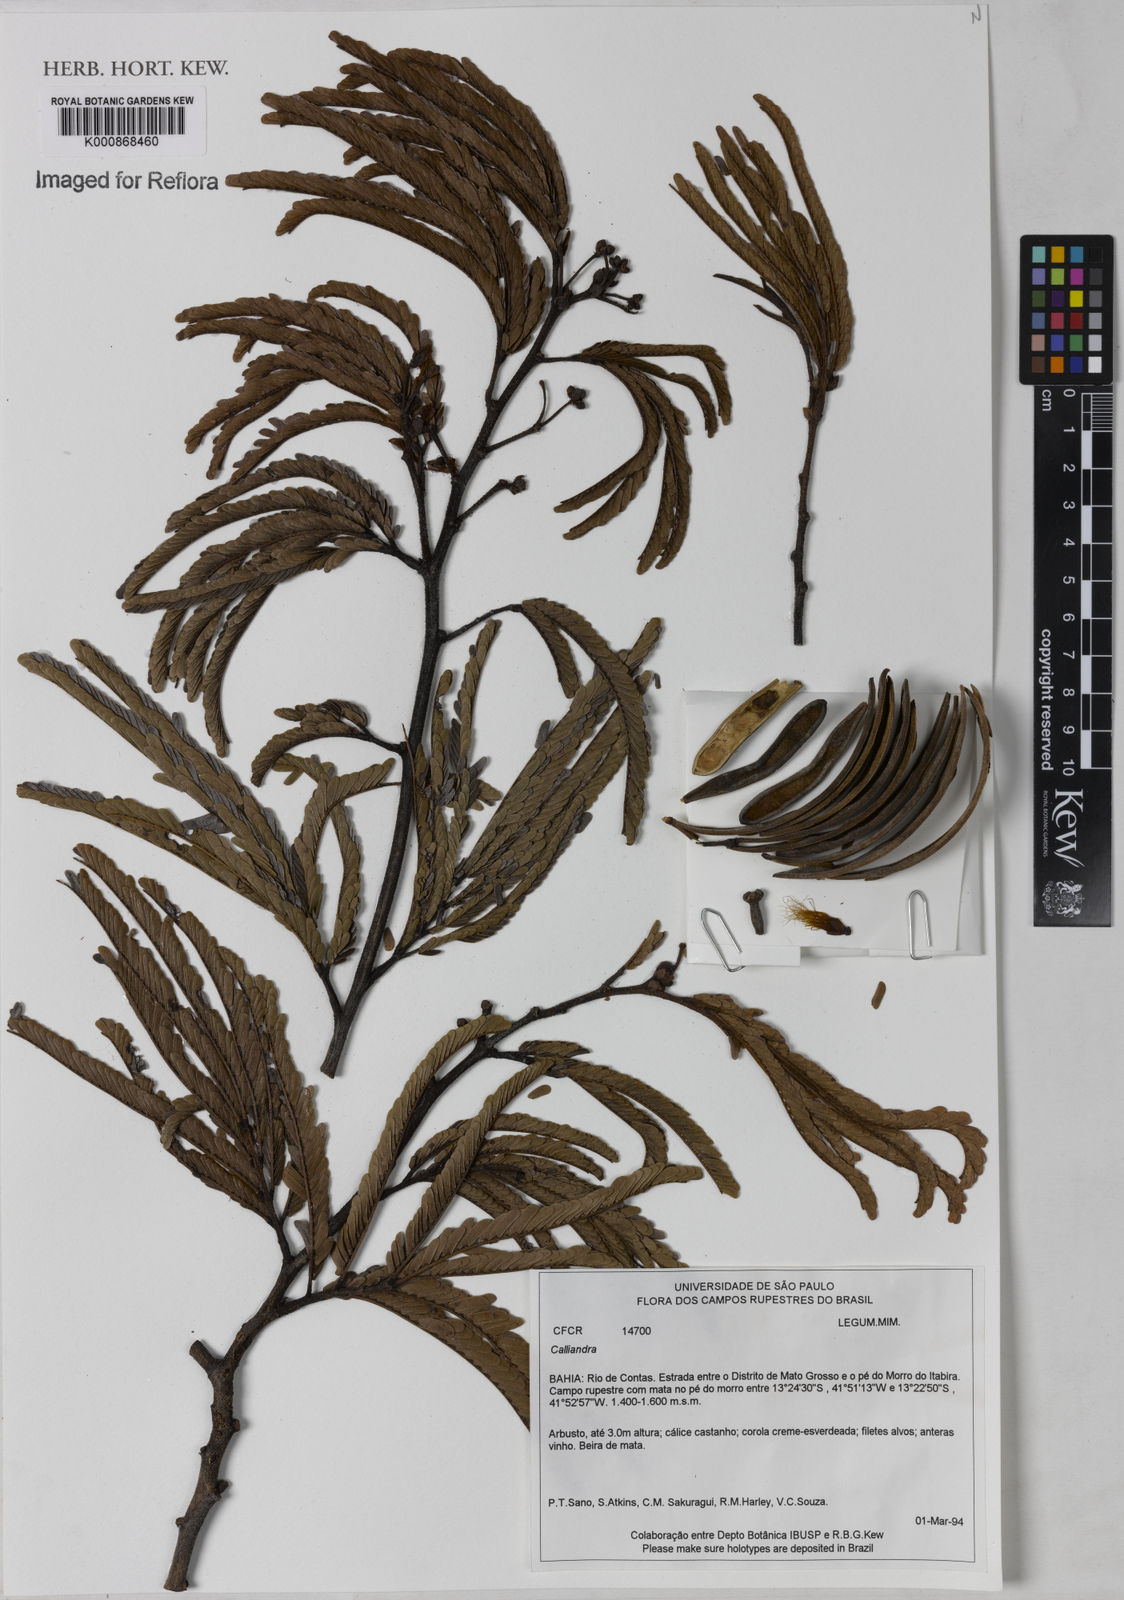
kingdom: Plantae
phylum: Tracheophyta
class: Magnoliopsida
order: Fabales
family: Fabaceae
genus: Calliandra
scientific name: Calliandra
